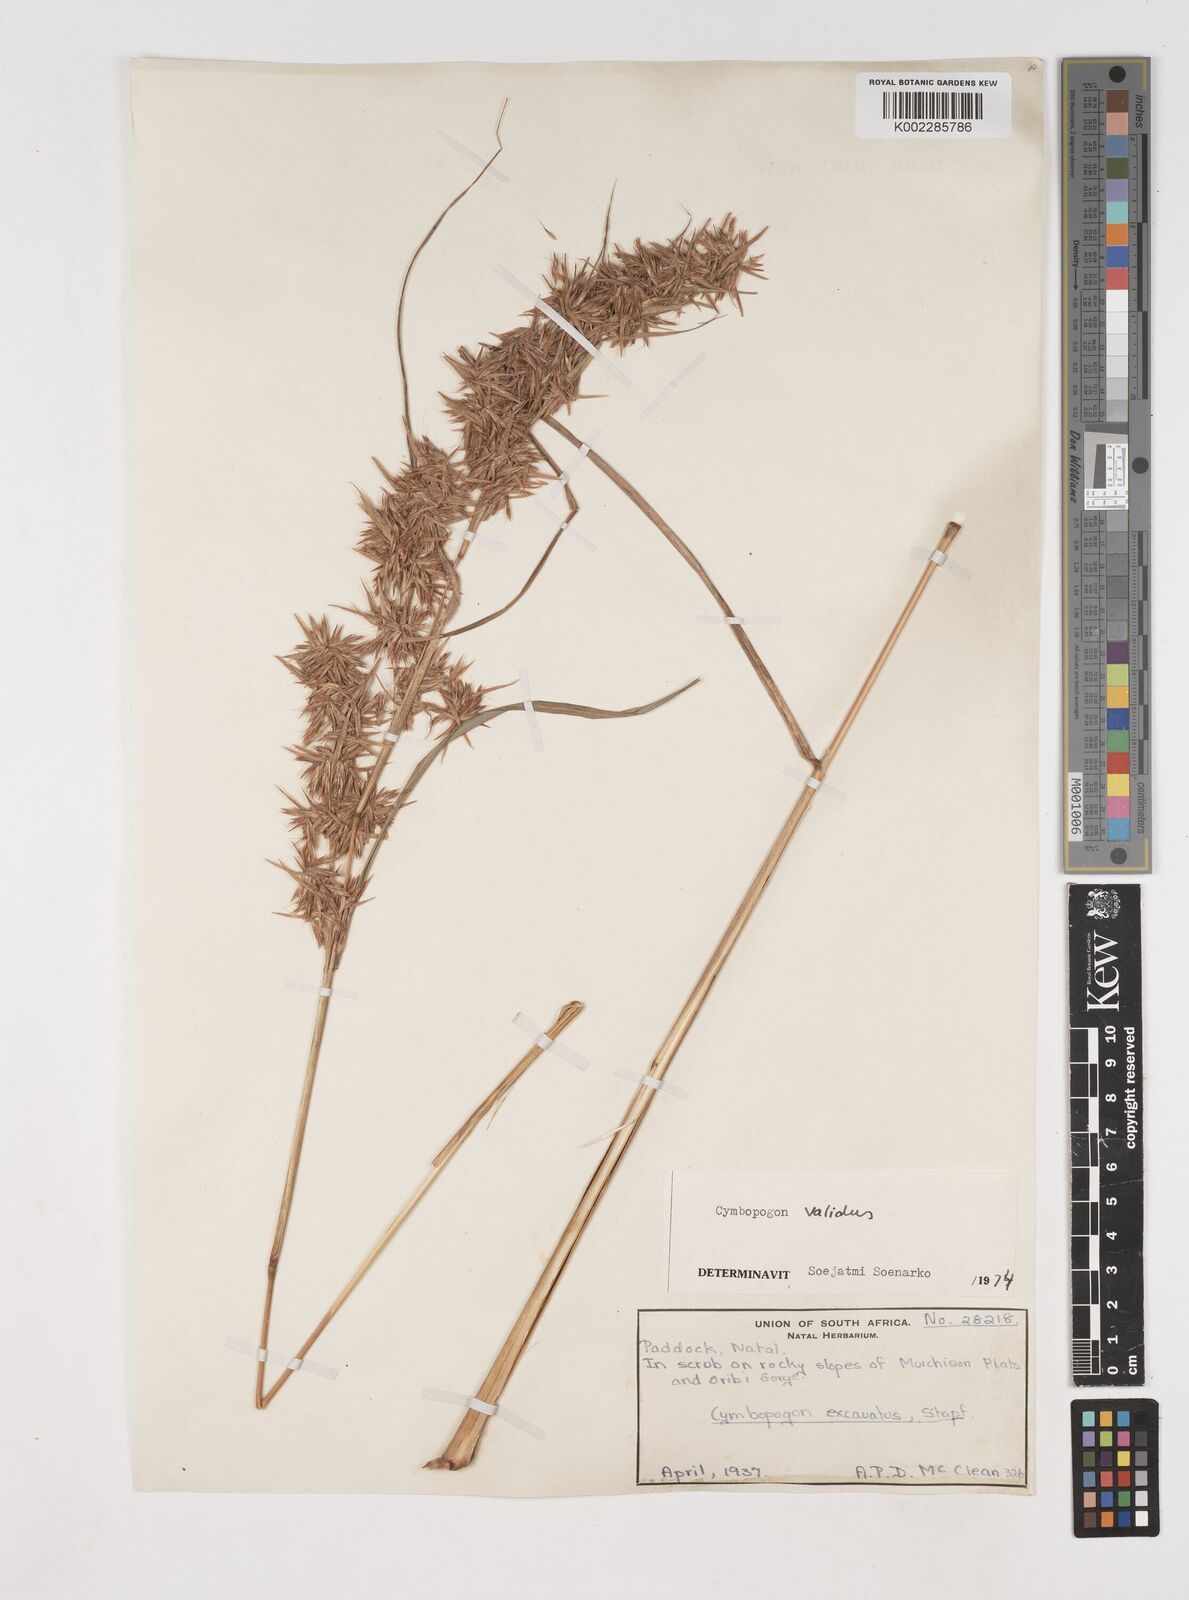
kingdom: Plantae
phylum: Tracheophyta
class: Liliopsida
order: Poales
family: Poaceae
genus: Cymbopogon
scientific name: Cymbopogon nardus
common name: Giant turpentine grass
